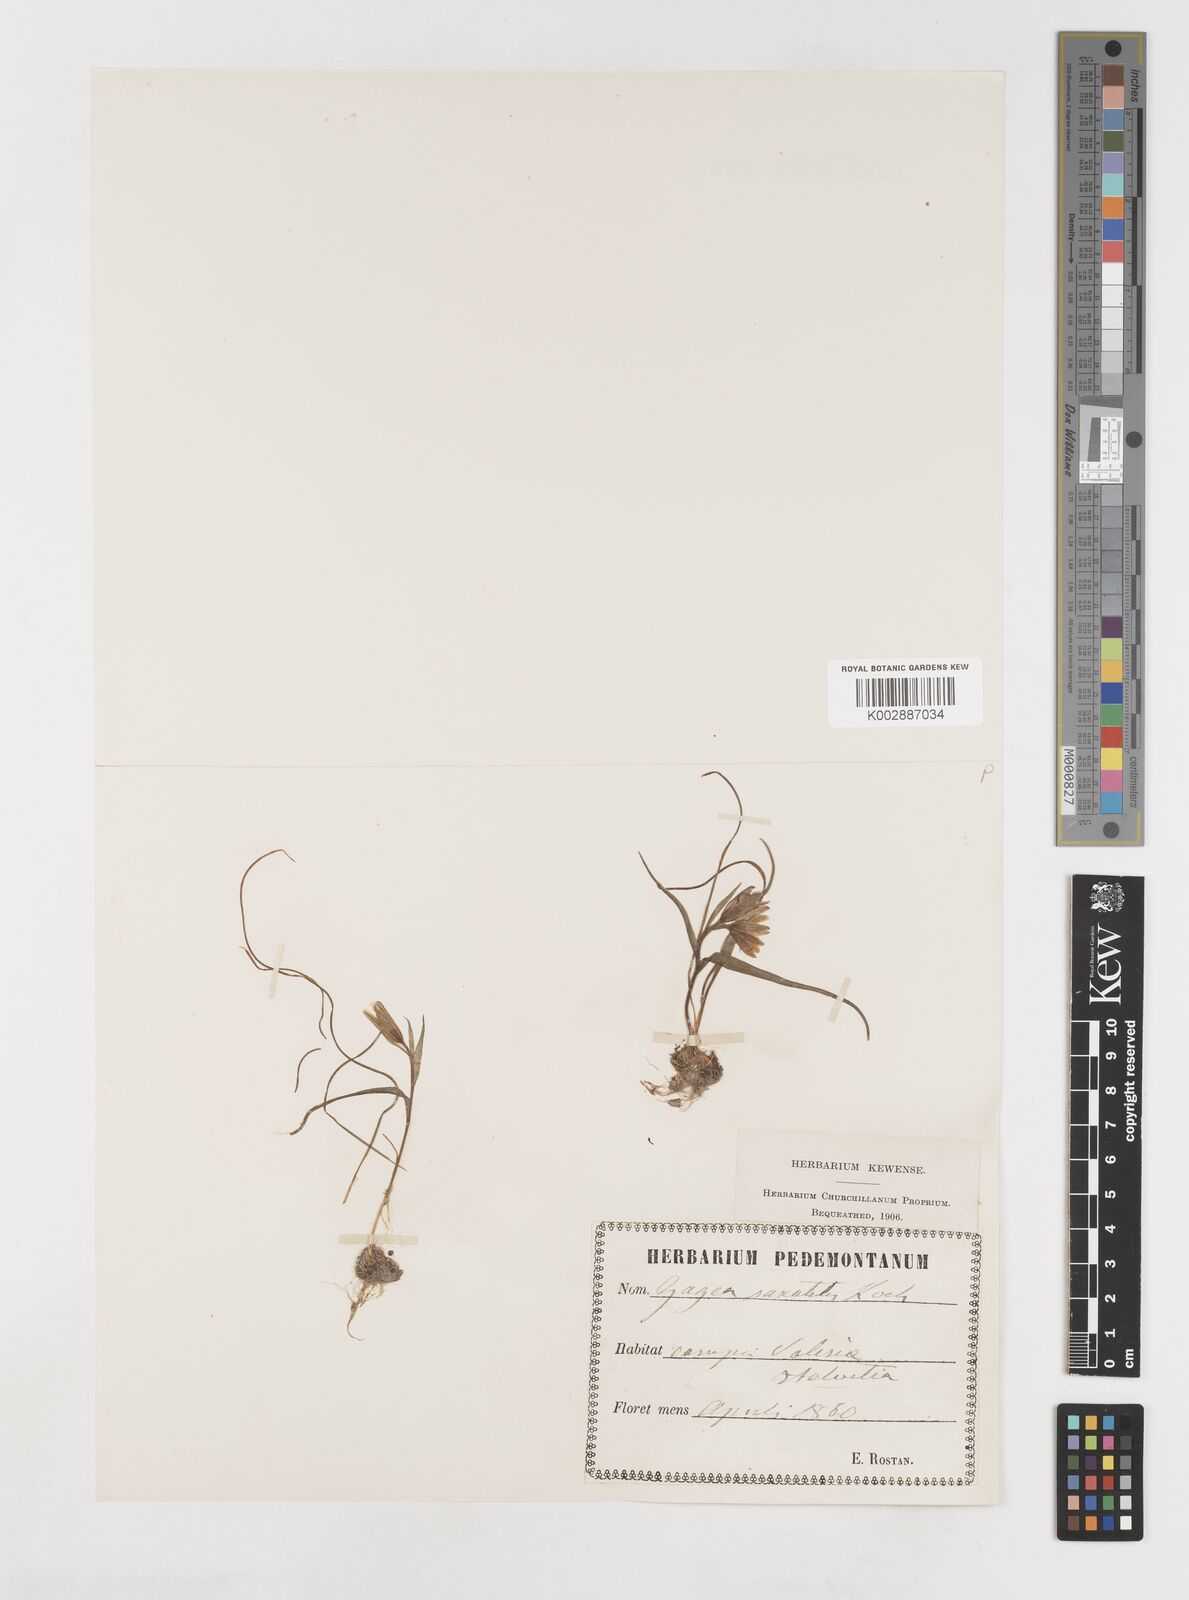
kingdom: Plantae
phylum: Tracheophyta
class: Liliopsida
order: Liliales
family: Liliaceae
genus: Gagea
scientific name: Gagea bohemica
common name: Early star-of-bethlehem
